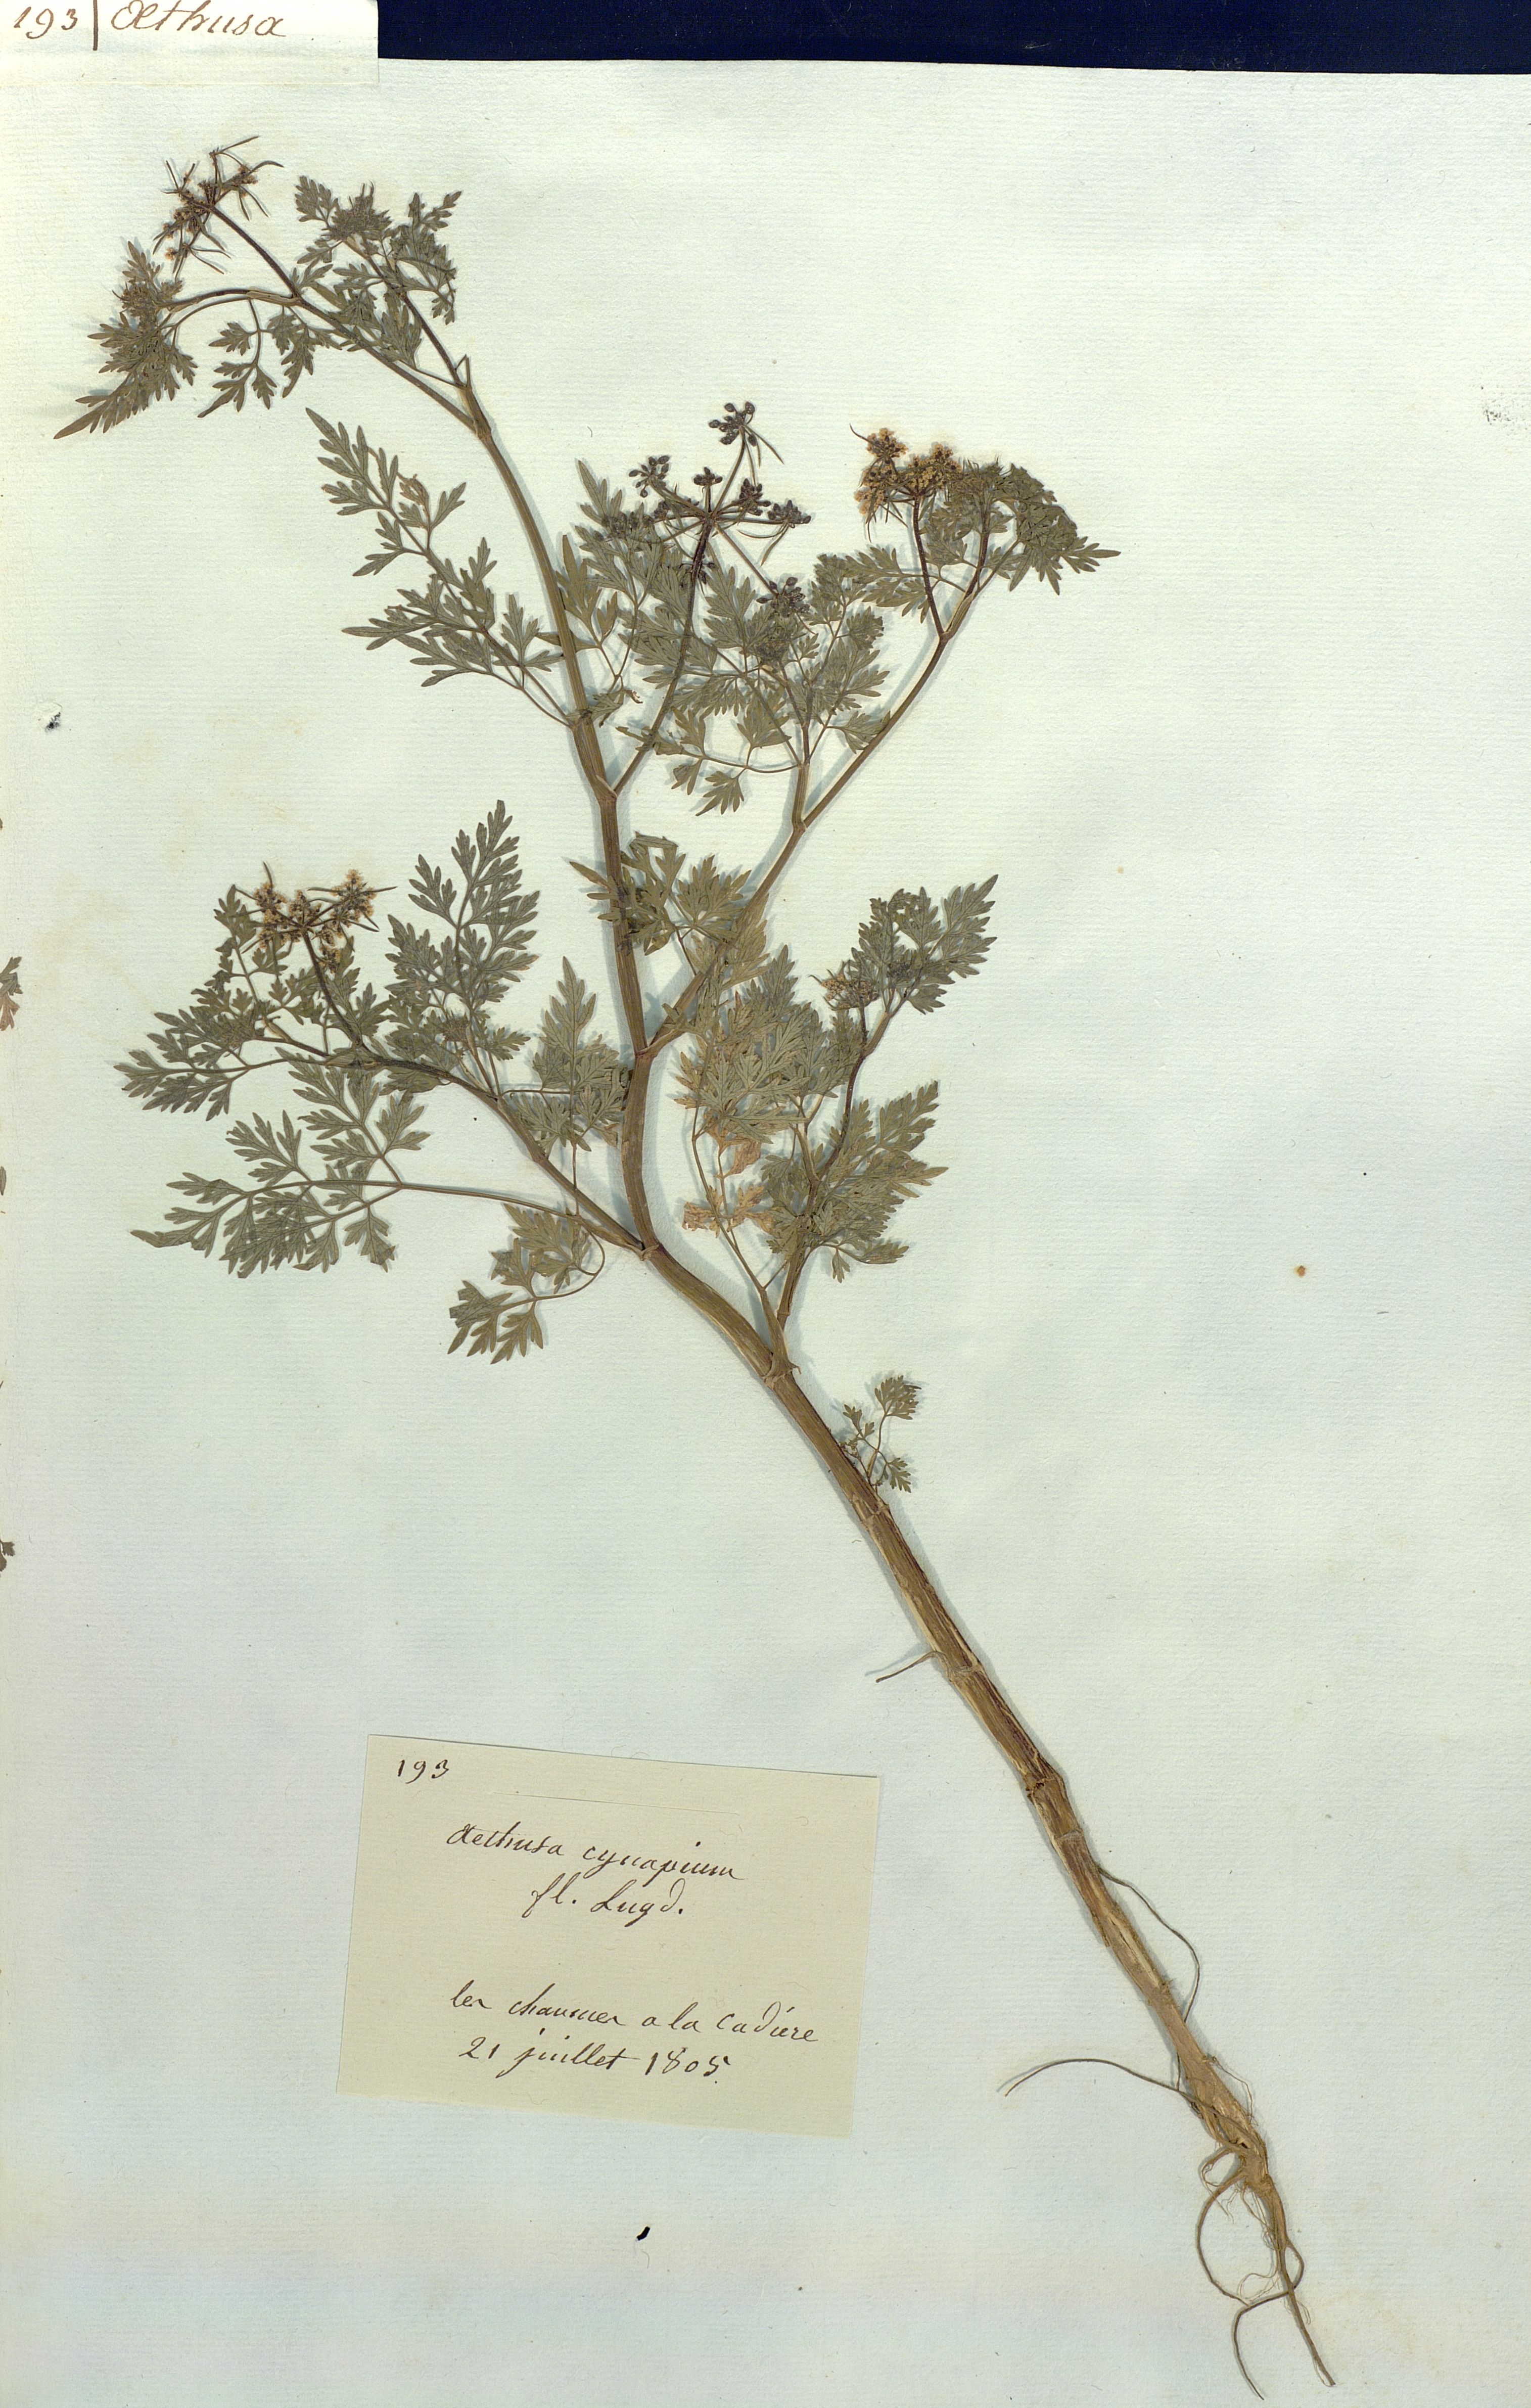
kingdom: Plantae
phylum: Tracheophyta
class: Magnoliopsida
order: Apiales
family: Apiaceae
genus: Aethusa
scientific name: Aethusa cynapium
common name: Fool's parsley
